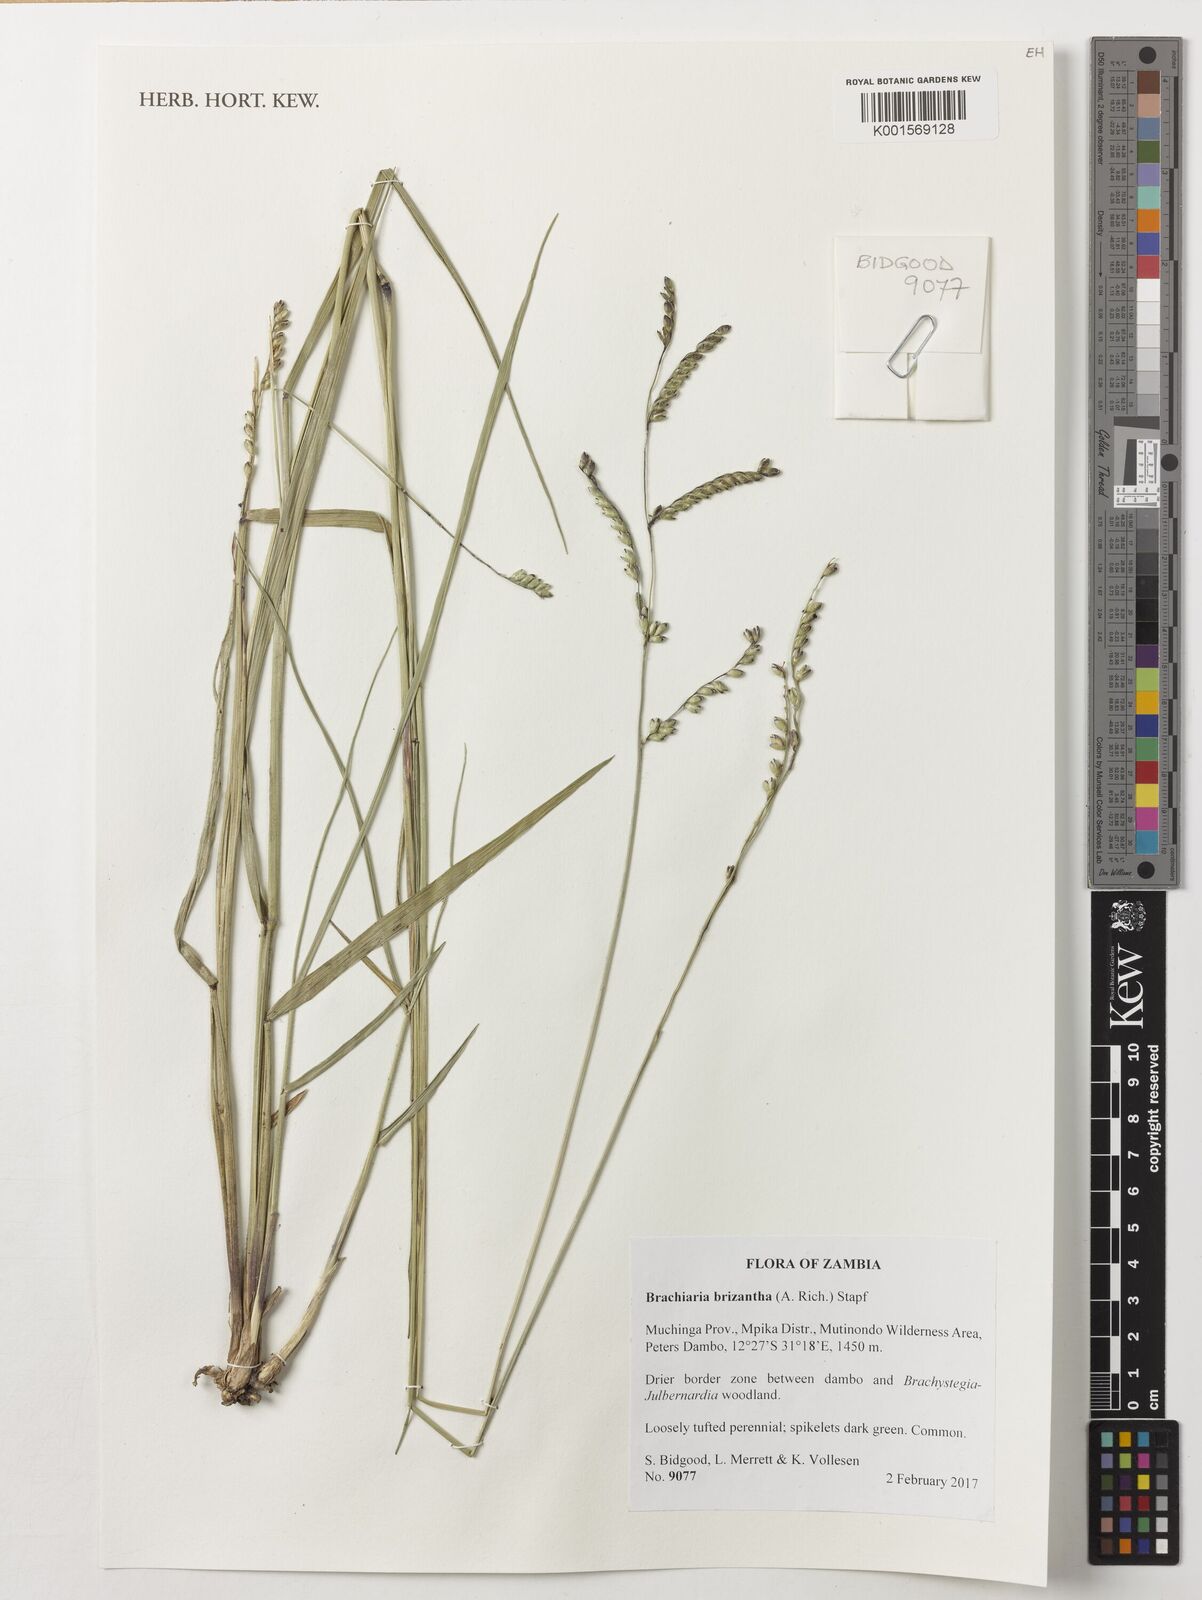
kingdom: Plantae
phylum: Tracheophyta
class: Liliopsida
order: Poales
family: Poaceae
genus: Urochloa
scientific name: Urochloa brizantha
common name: Palisade signalgrass
